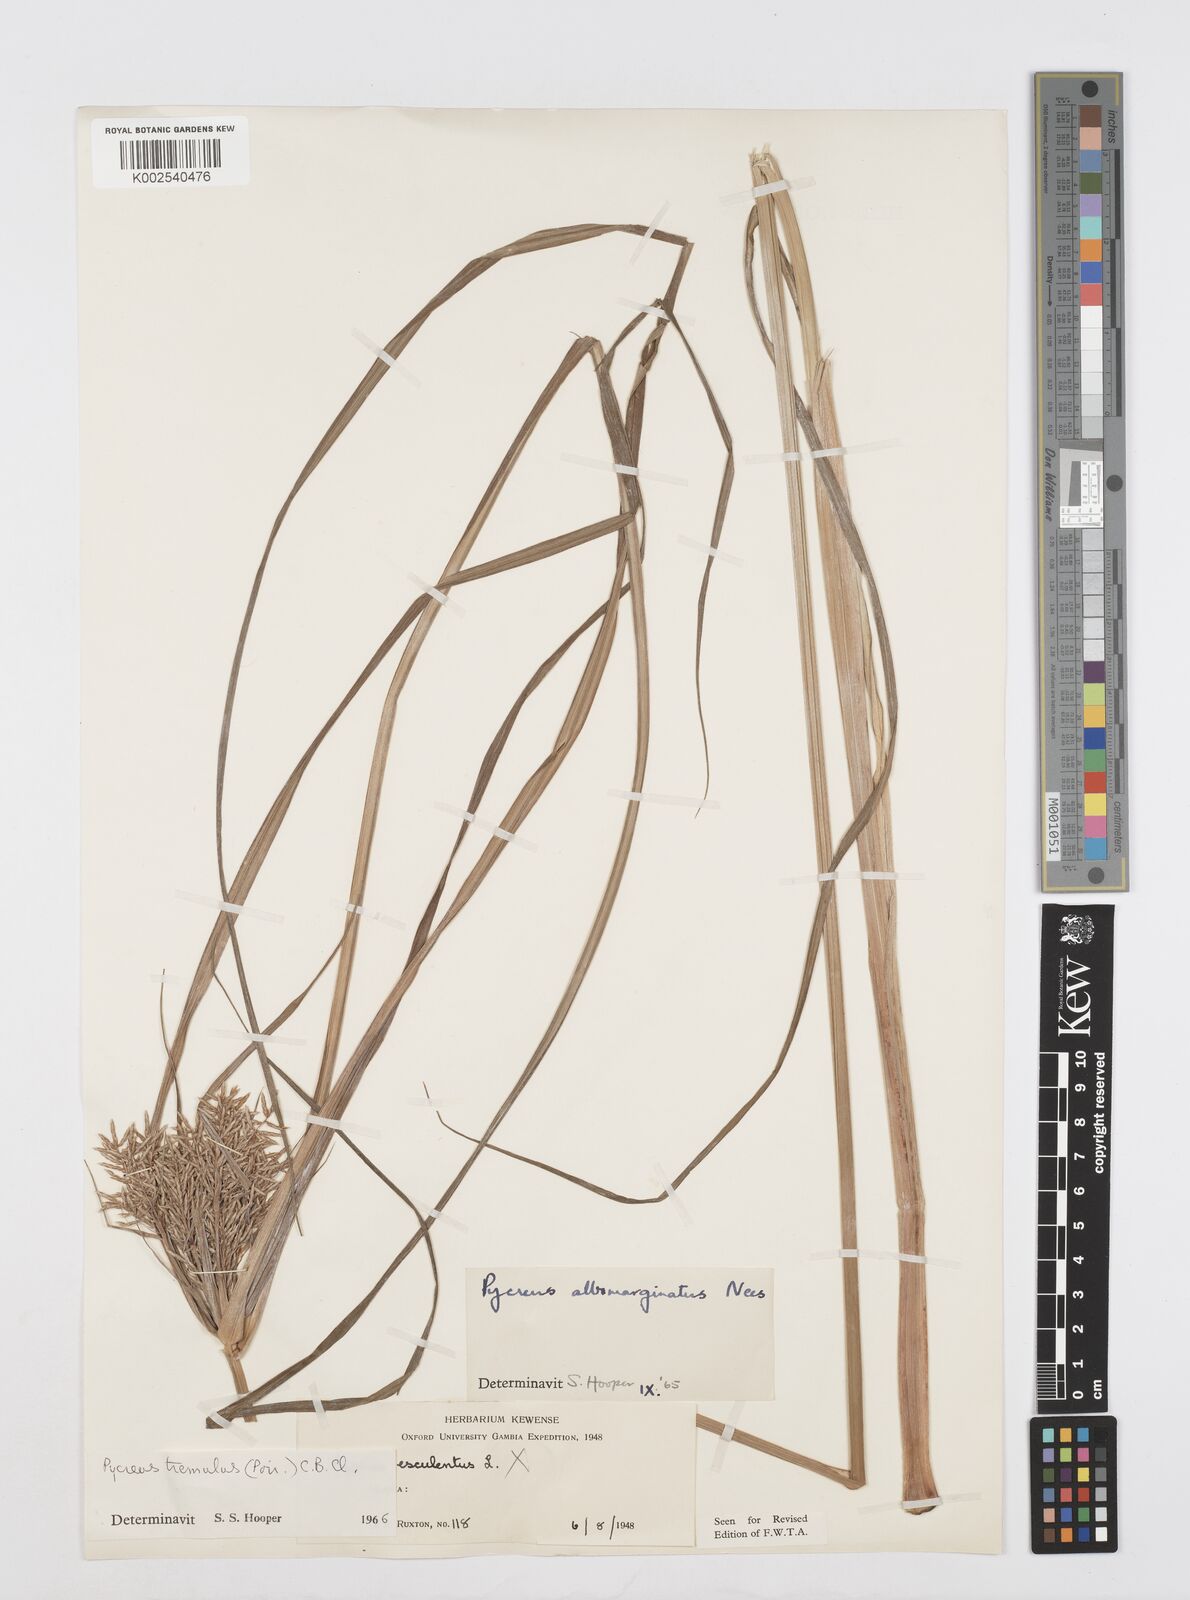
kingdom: Plantae
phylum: Tracheophyta
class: Liliopsida
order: Poales
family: Cyperaceae
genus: Cyperus
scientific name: Cyperus macrostachyos
